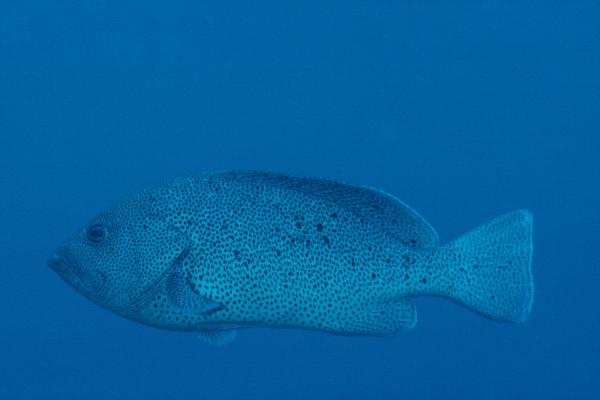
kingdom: Animalia
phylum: Chordata
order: Perciformes
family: Serranidae
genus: Epinephelus
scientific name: Epinephelus cyanopodus
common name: Speckled blue grouper
